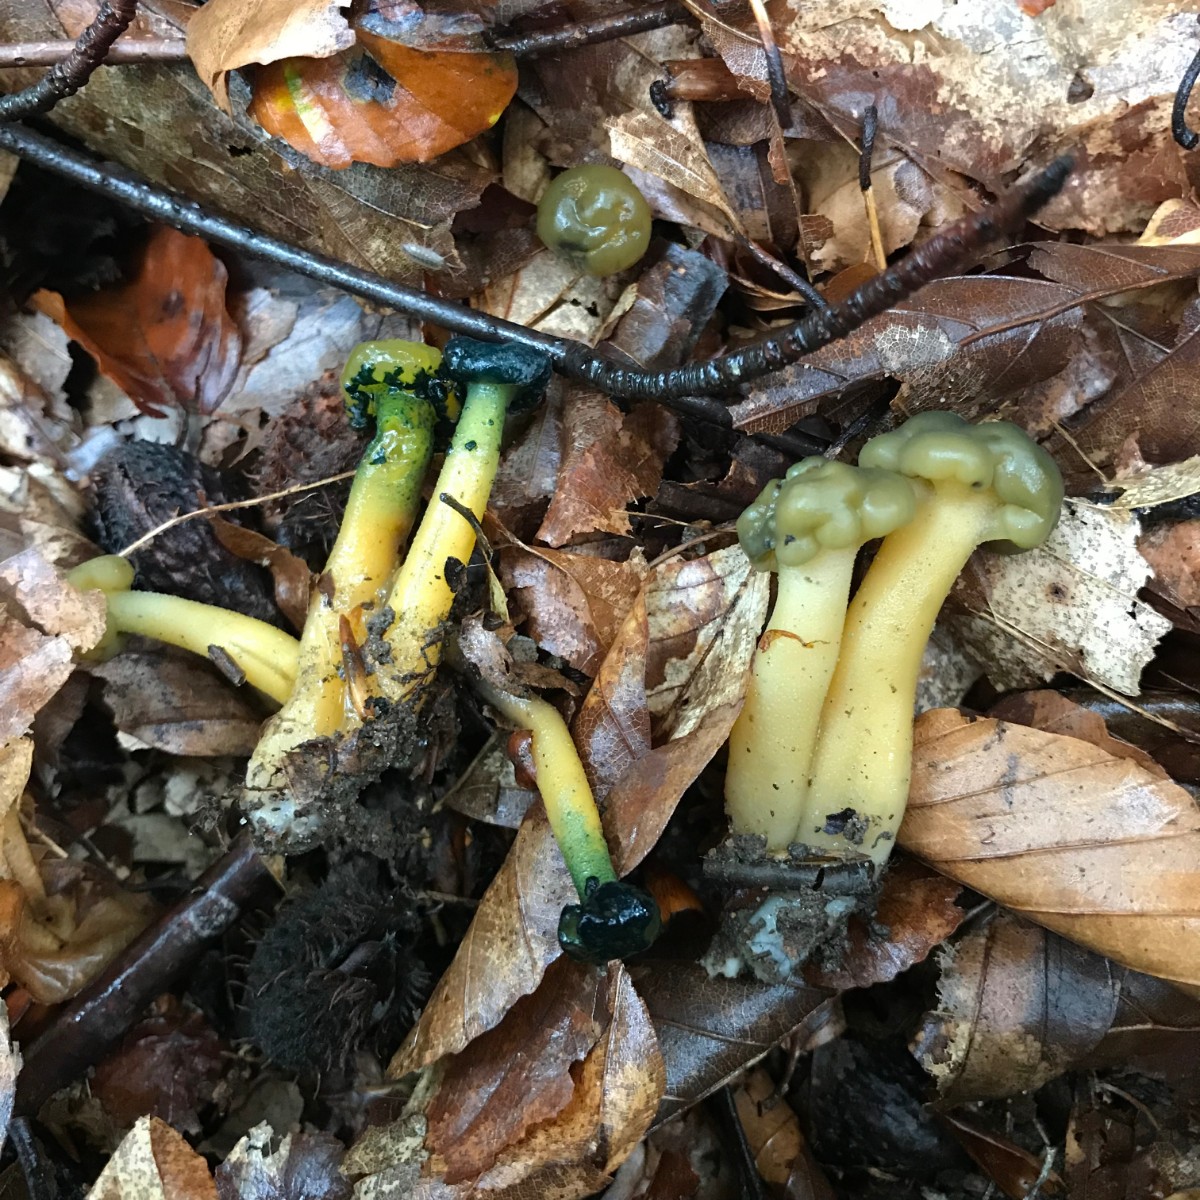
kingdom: Fungi
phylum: Ascomycota
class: Sordariomycetes
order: Hypocreales
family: Hypocreaceae
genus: Hypomyces
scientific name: Hypomyces leotiicola
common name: ravsvamp-snylteskorpe
